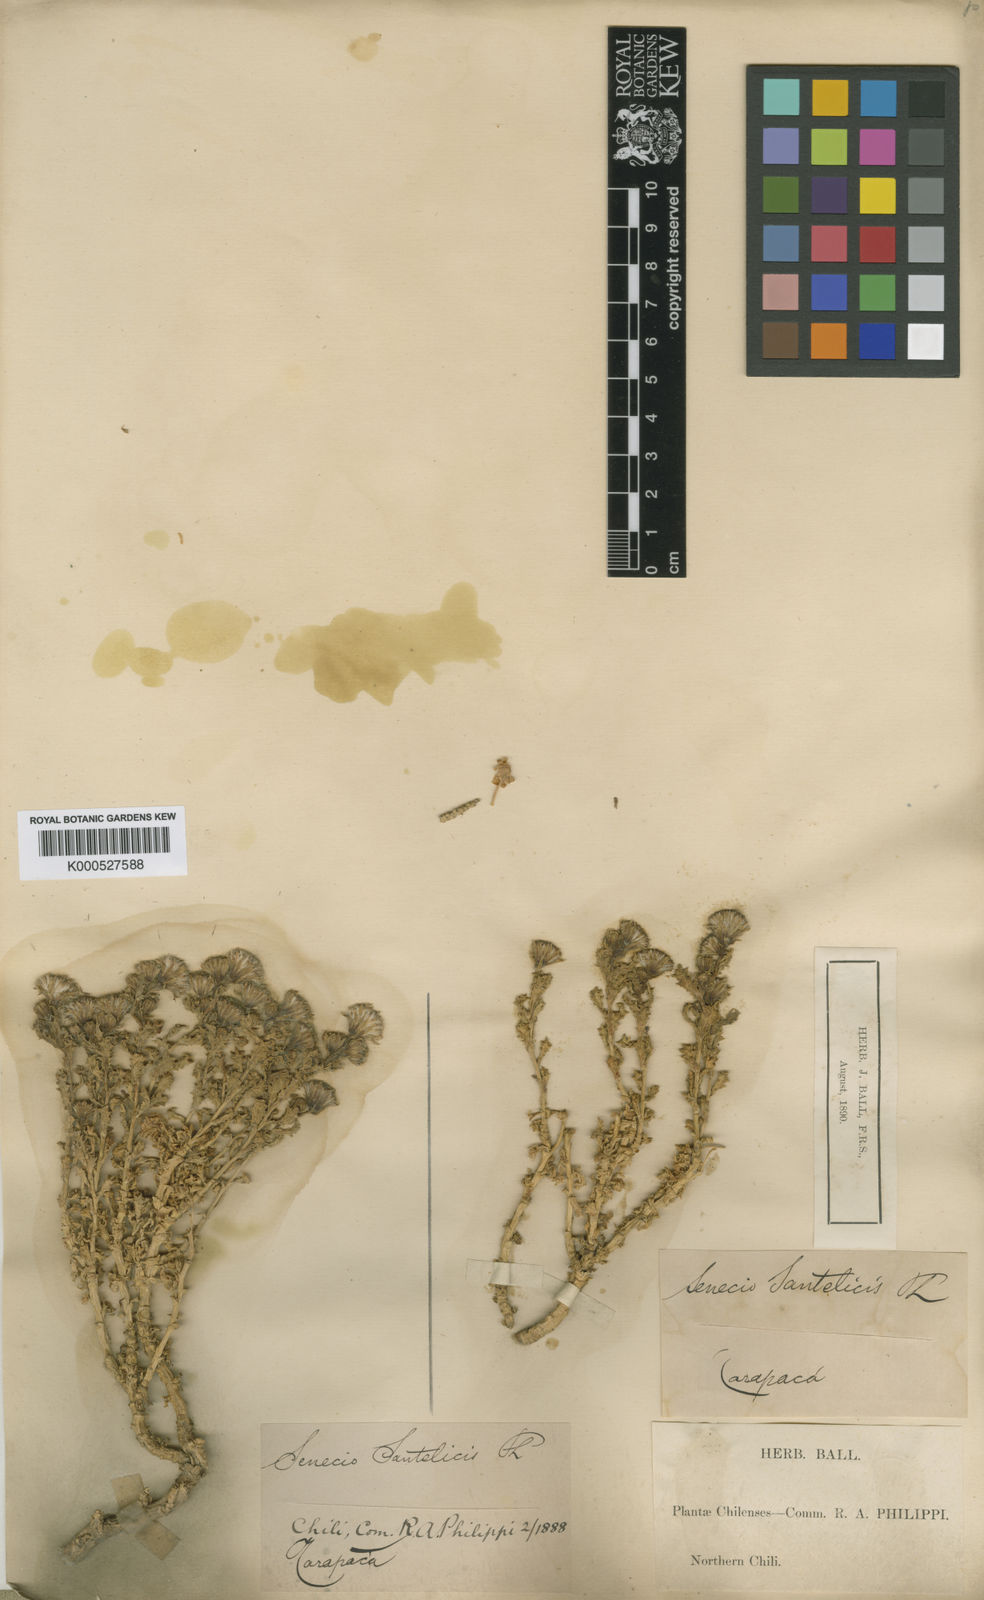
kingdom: Plantae
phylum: Tracheophyta
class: Magnoliopsida
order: Asterales
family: Asteraceae
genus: Senecio
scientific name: Senecio santelicis
